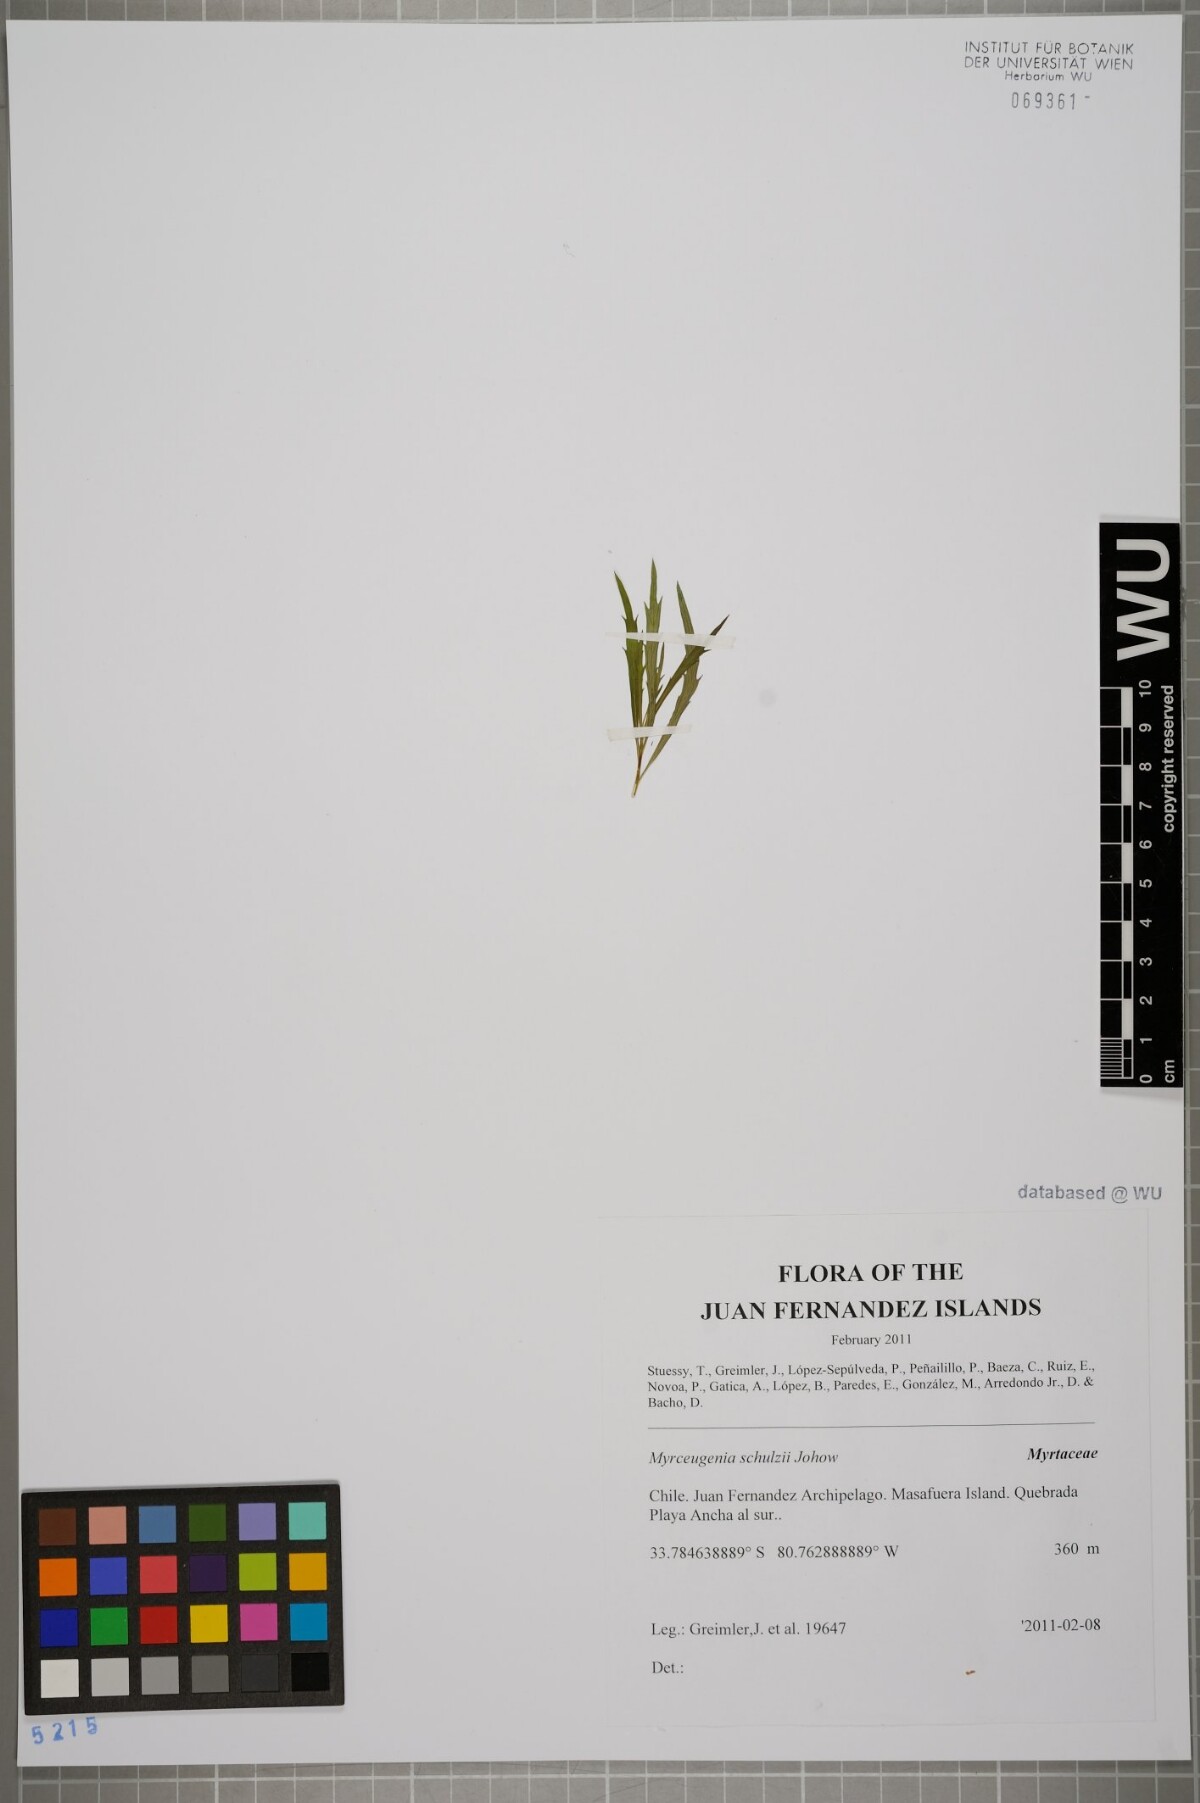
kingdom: Plantae
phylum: Tracheophyta
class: Magnoliopsida
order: Myrtales
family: Myrtaceae
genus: Myrceugenia
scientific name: Myrceugenia schulzei
